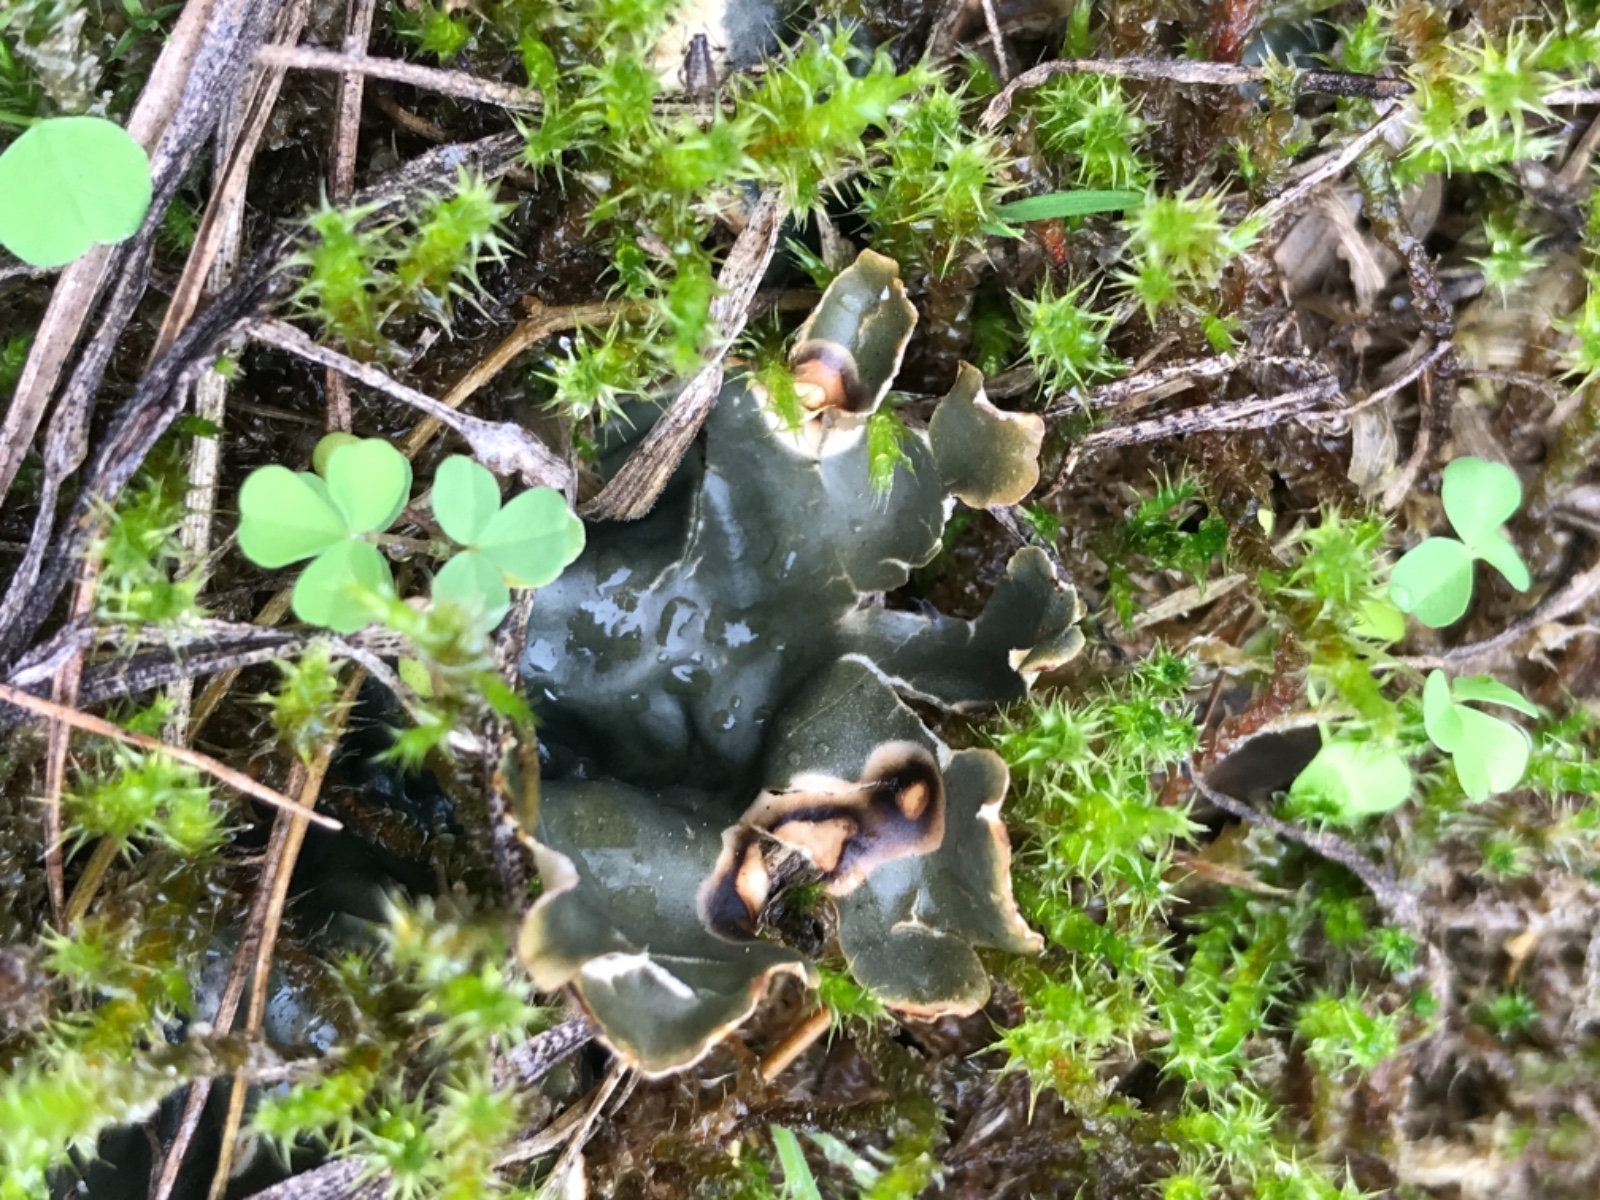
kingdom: Fungi
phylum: Ascomycota
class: Lecanoromycetes
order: Peltigerales
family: Peltigeraceae
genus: Peltigera
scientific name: Peltigera hymenina
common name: hinde-skjoldlav
